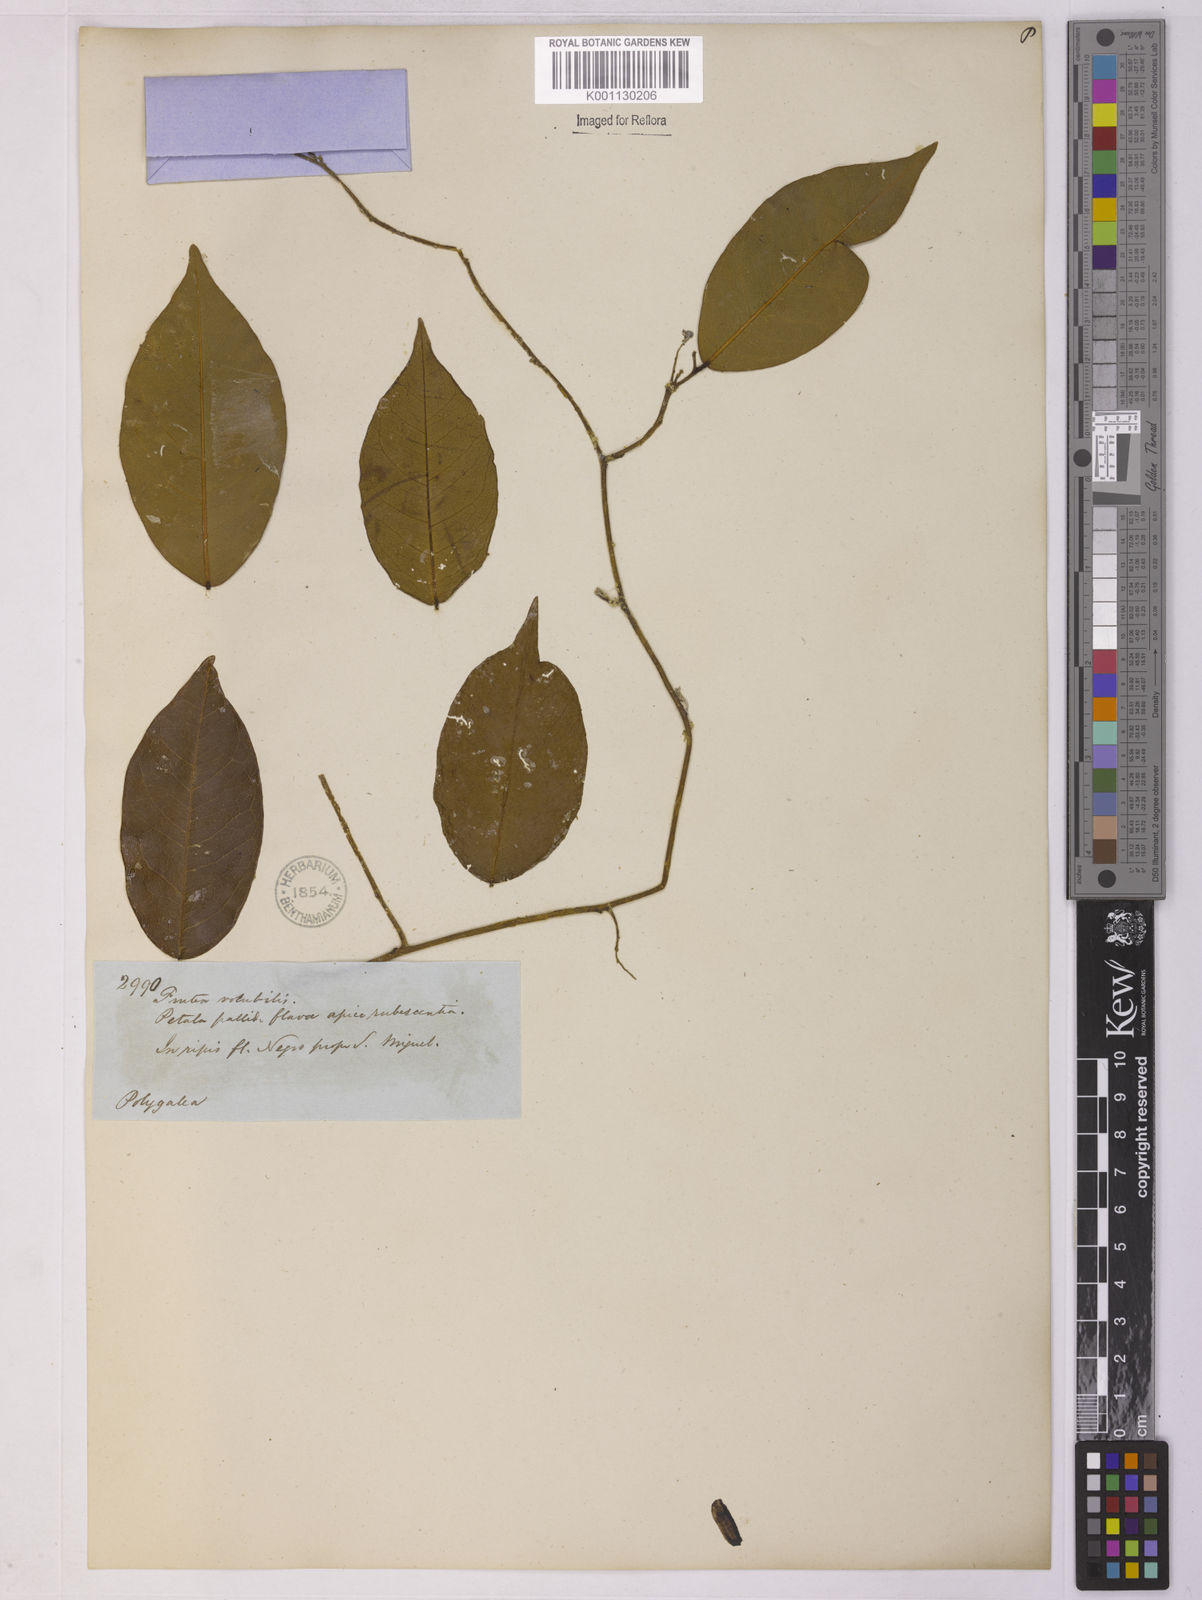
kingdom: Plantae
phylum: Tracheophyta
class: Magnoliopsida
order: Fabales
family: Polygalaceae
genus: Securidaca
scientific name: Securidaca
